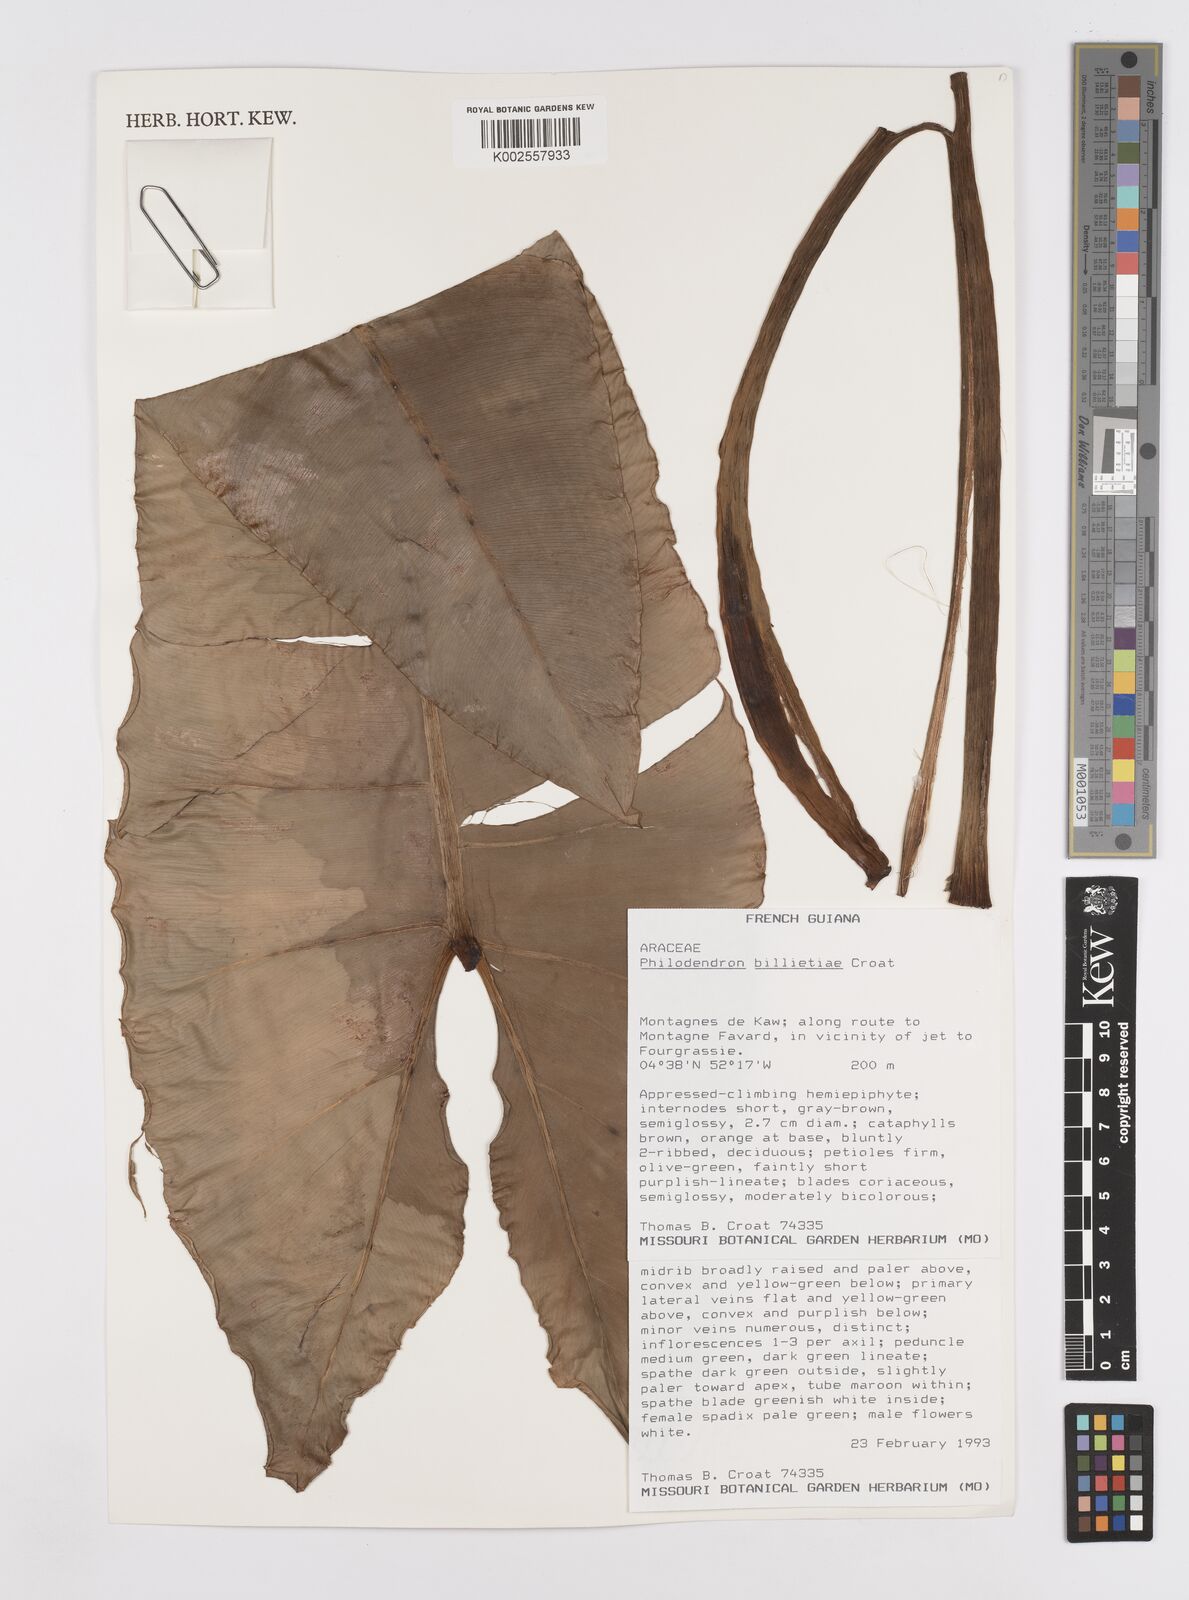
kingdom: Plantae
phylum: Tracheophyta
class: Liliopsida
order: Alismatales
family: Araceae
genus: Philodendron
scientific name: Philodendron billietiae
